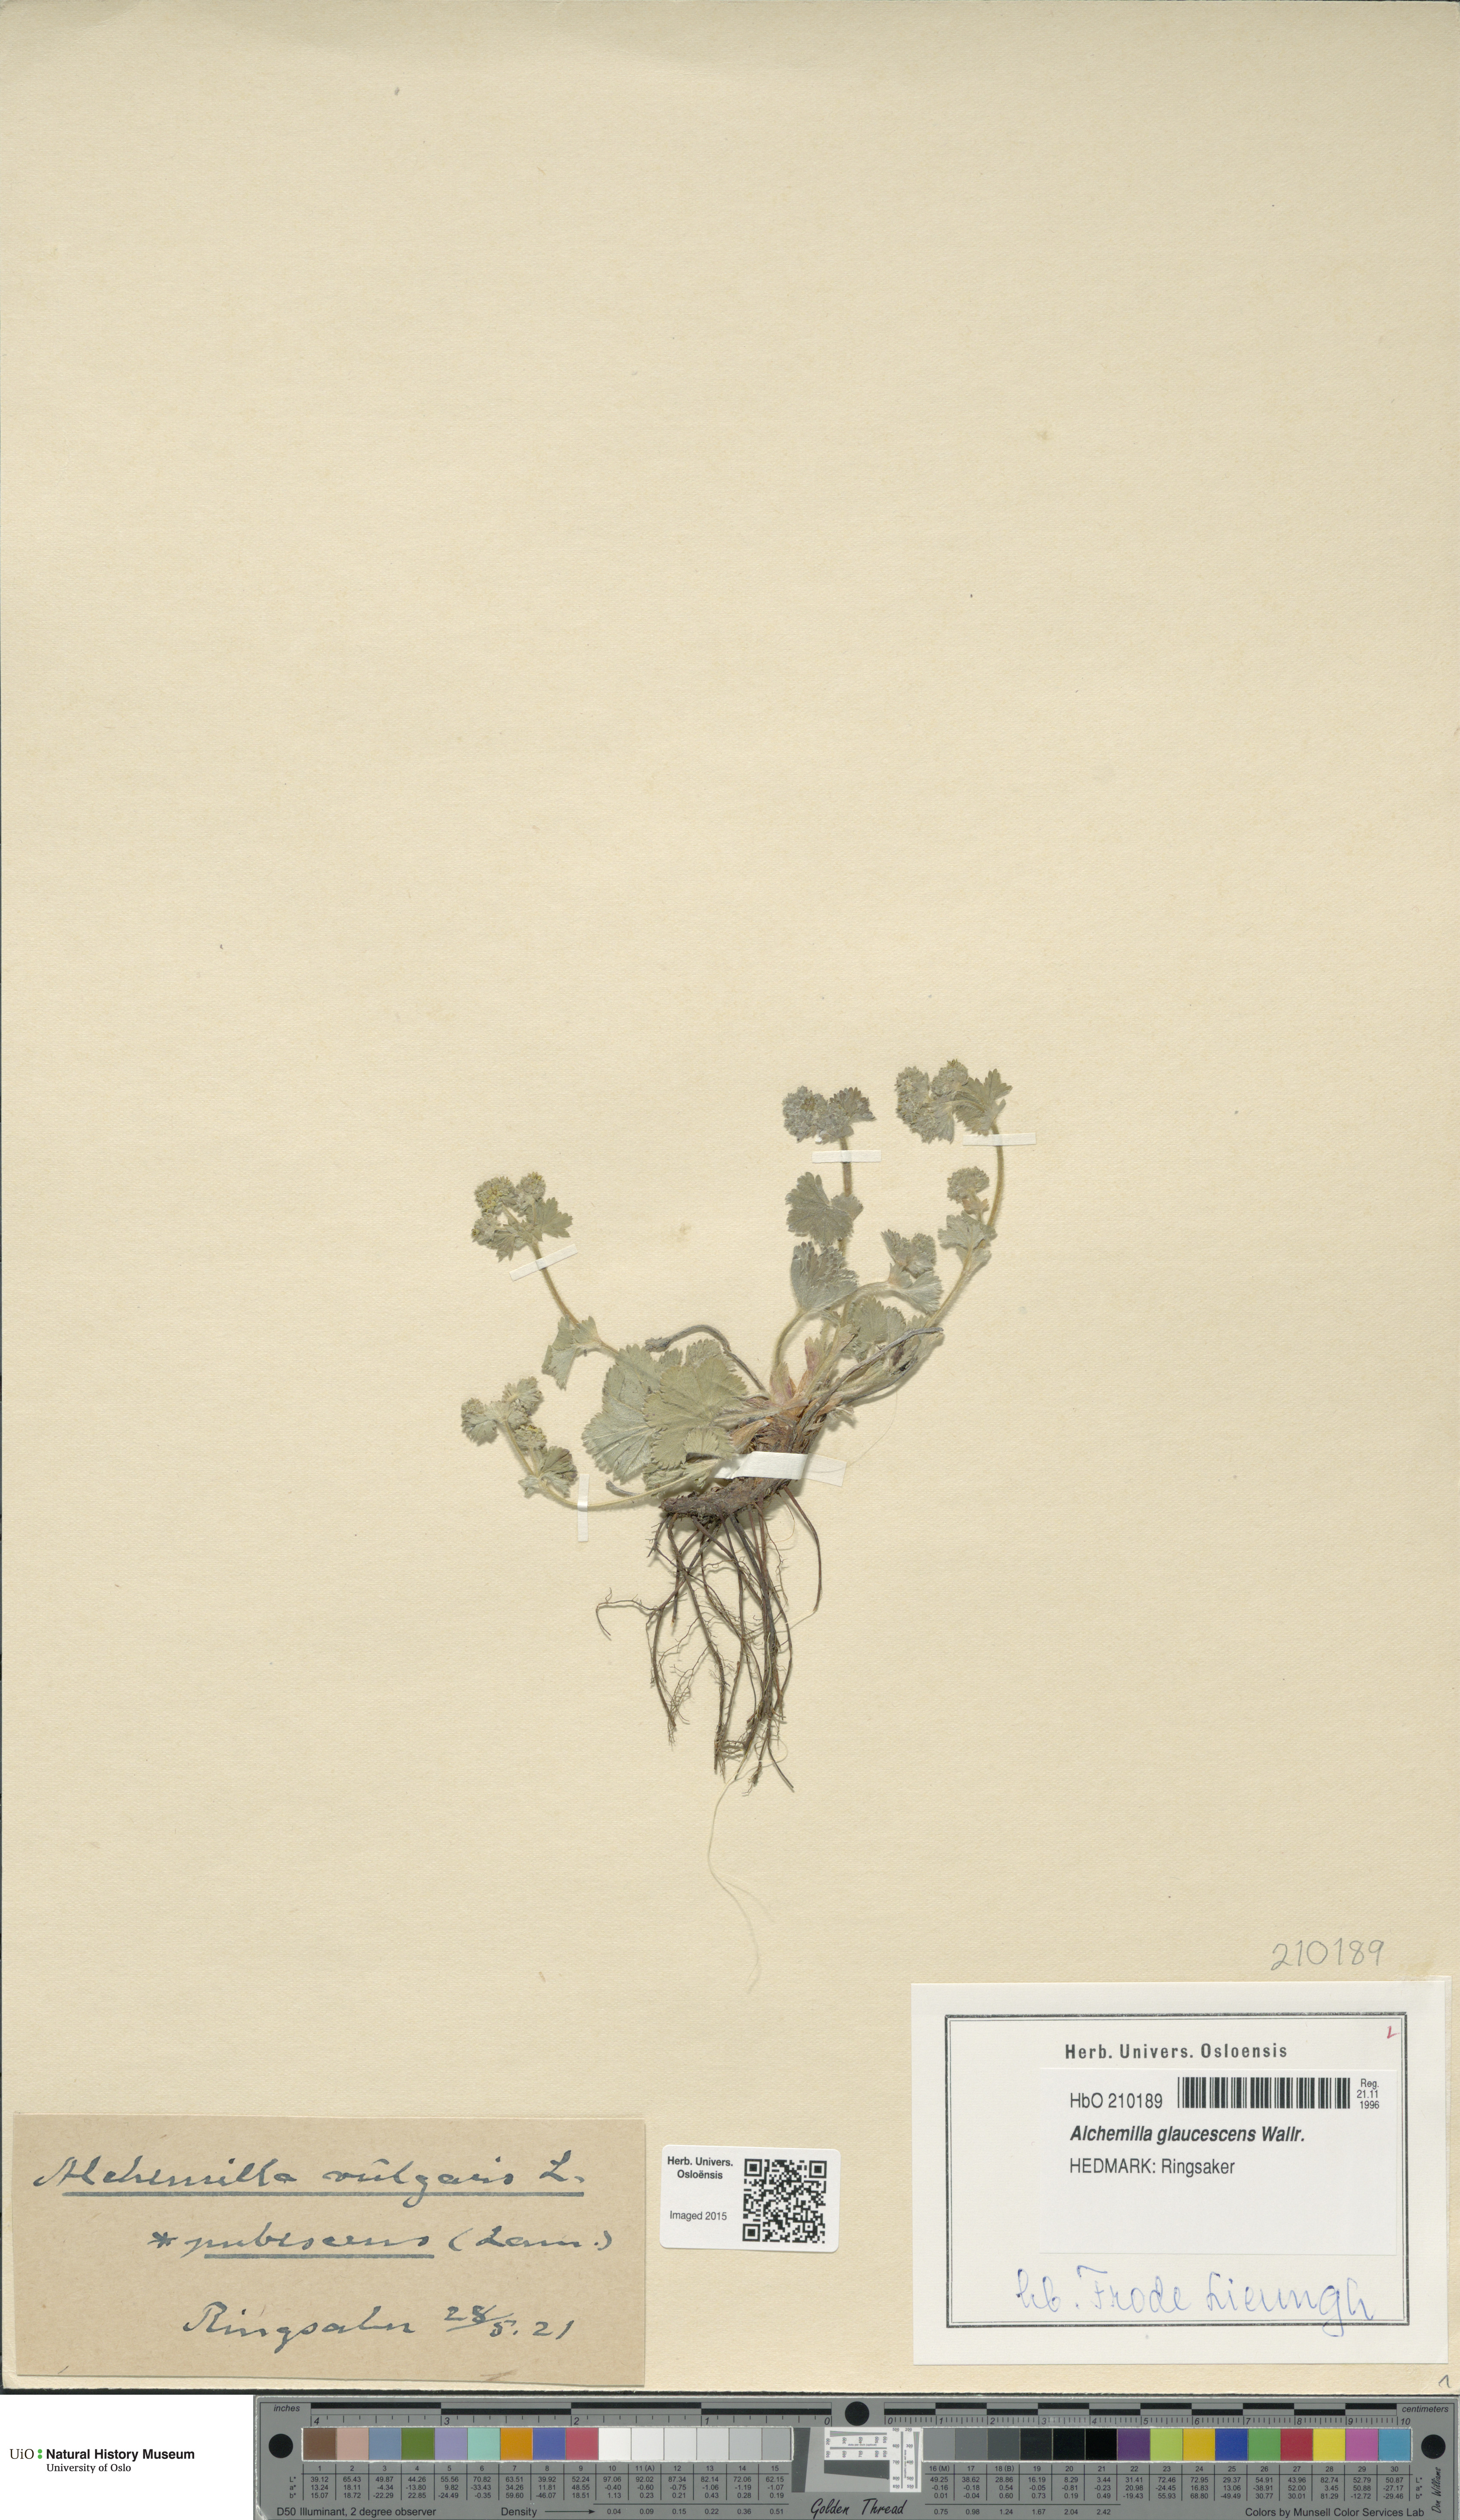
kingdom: Plantae
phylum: Tracheophyta
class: Magnoliopsida
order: Rosales
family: Rosaceae
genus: Alchemilla
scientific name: Alchemilla glaucescens
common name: Silky lady's mantle
